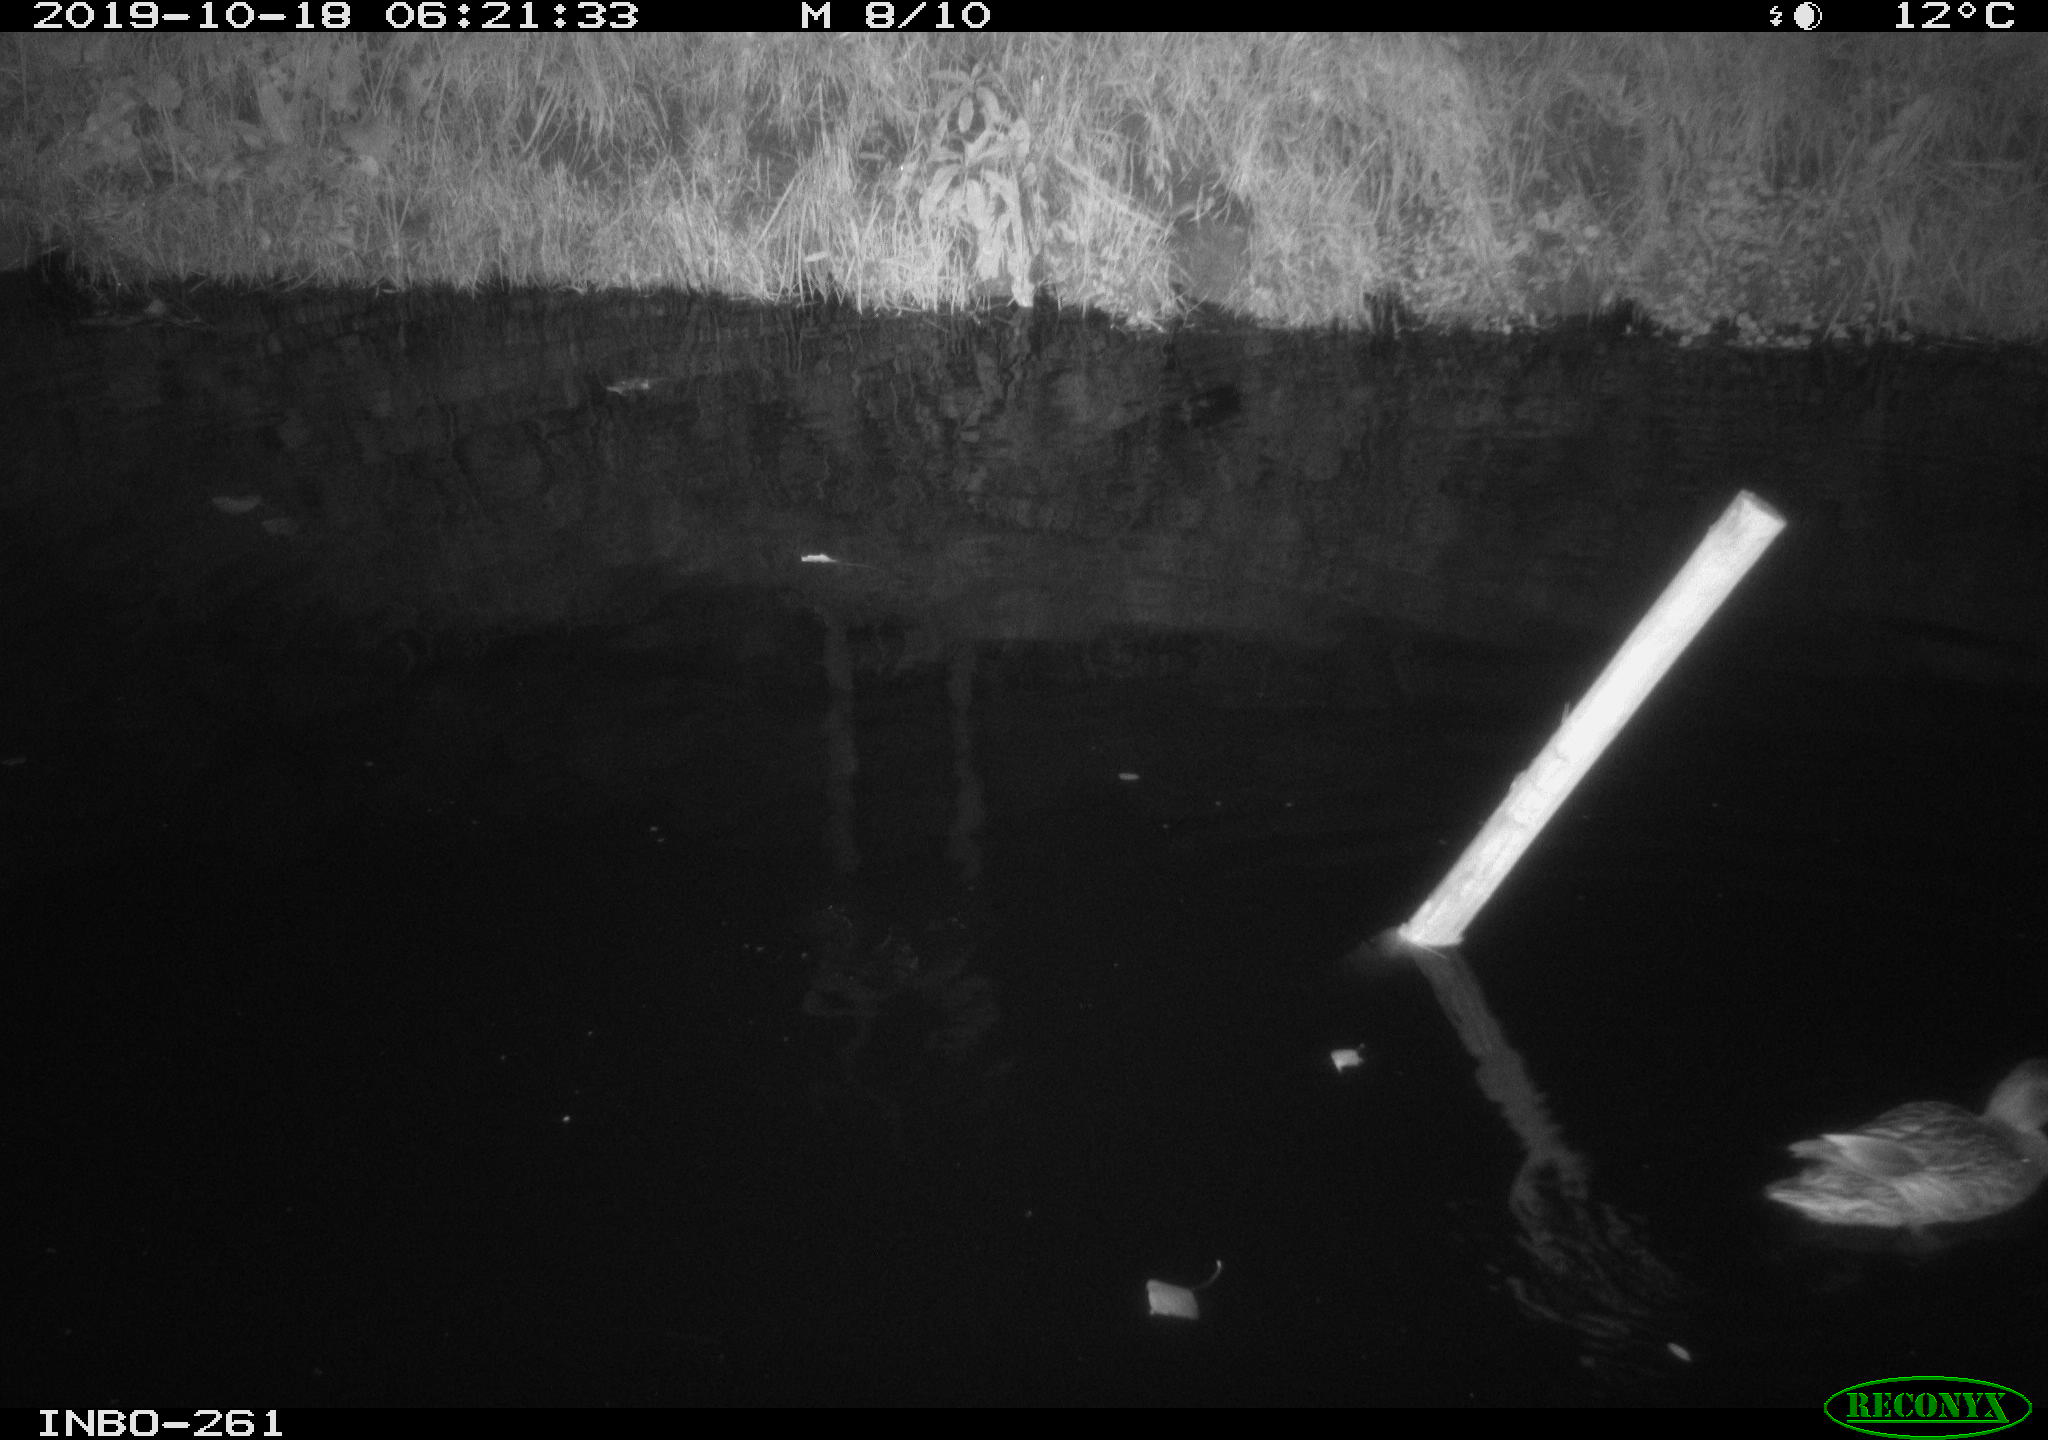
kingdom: Animalia
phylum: Chordata
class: Aves
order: Anseriformes
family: Anatidae
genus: Anas
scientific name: Anas platyrhynchos
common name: Mallard
